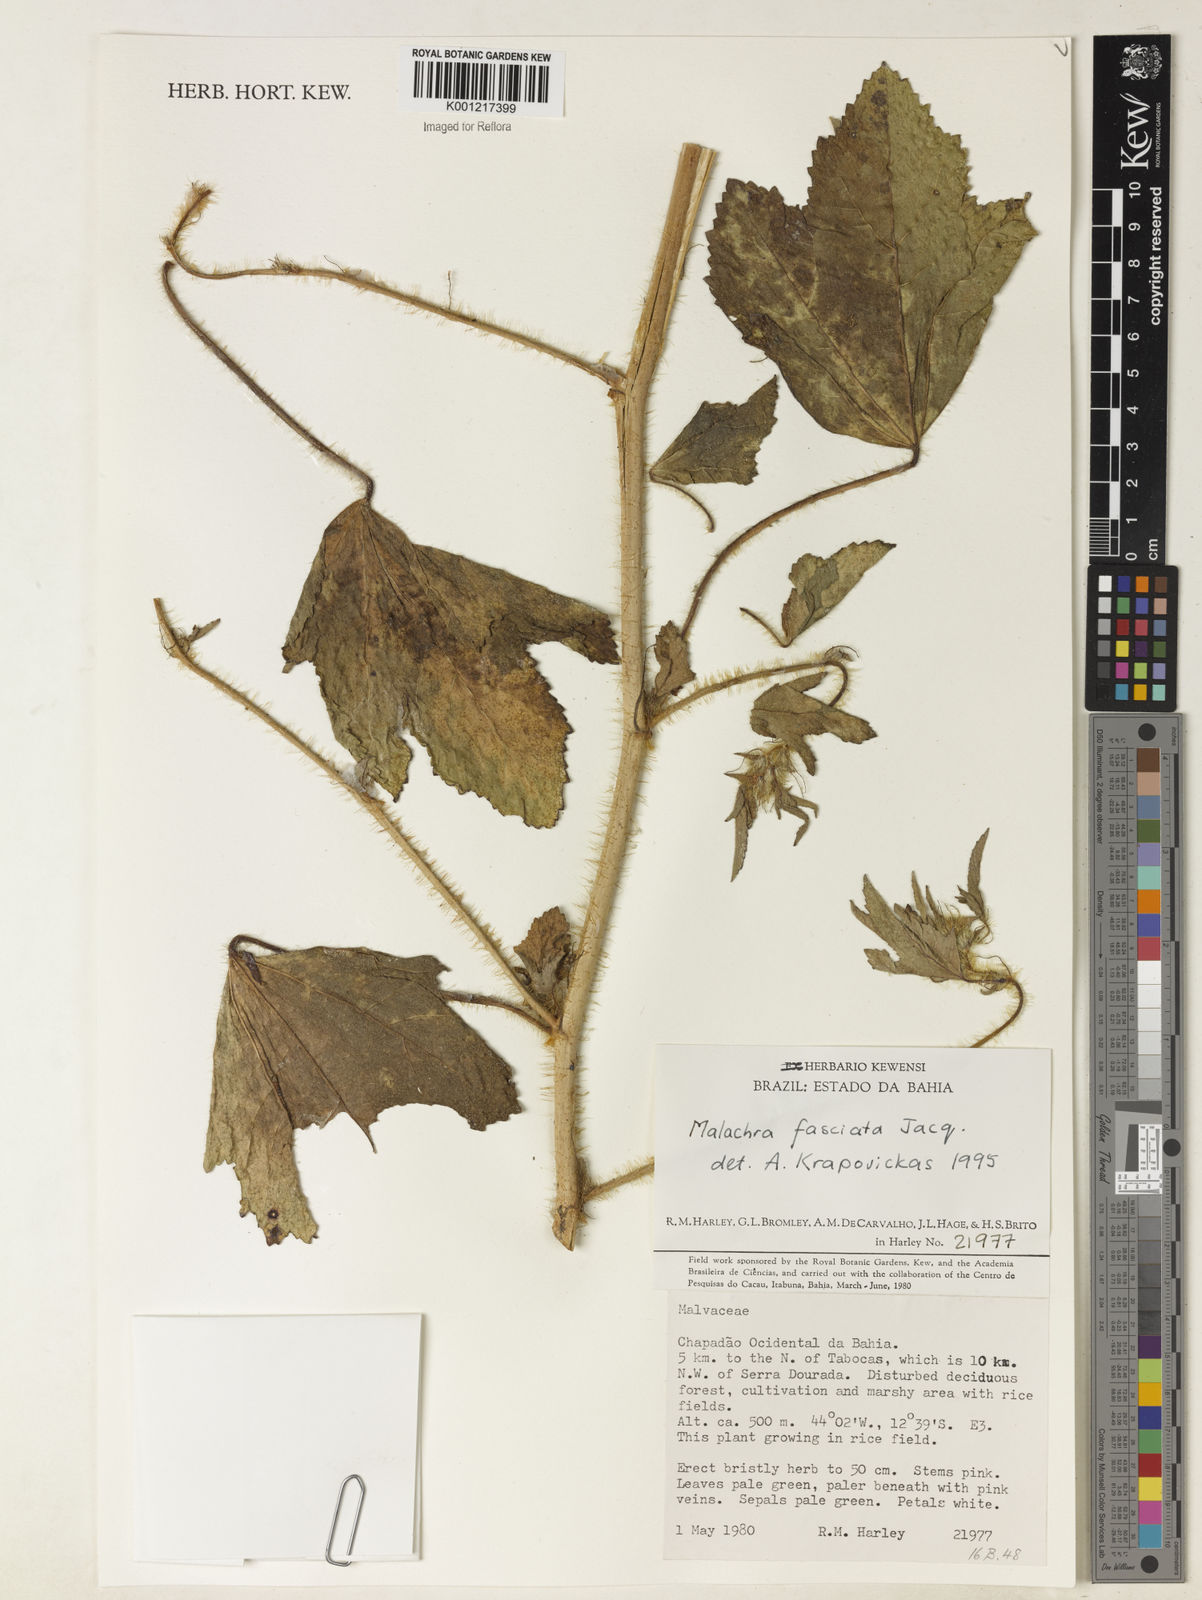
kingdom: Plantae
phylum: Tracheophyta
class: Magnoliopsida
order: Malvales
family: Malvaceae
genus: Malachra
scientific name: Malachra fasciata
